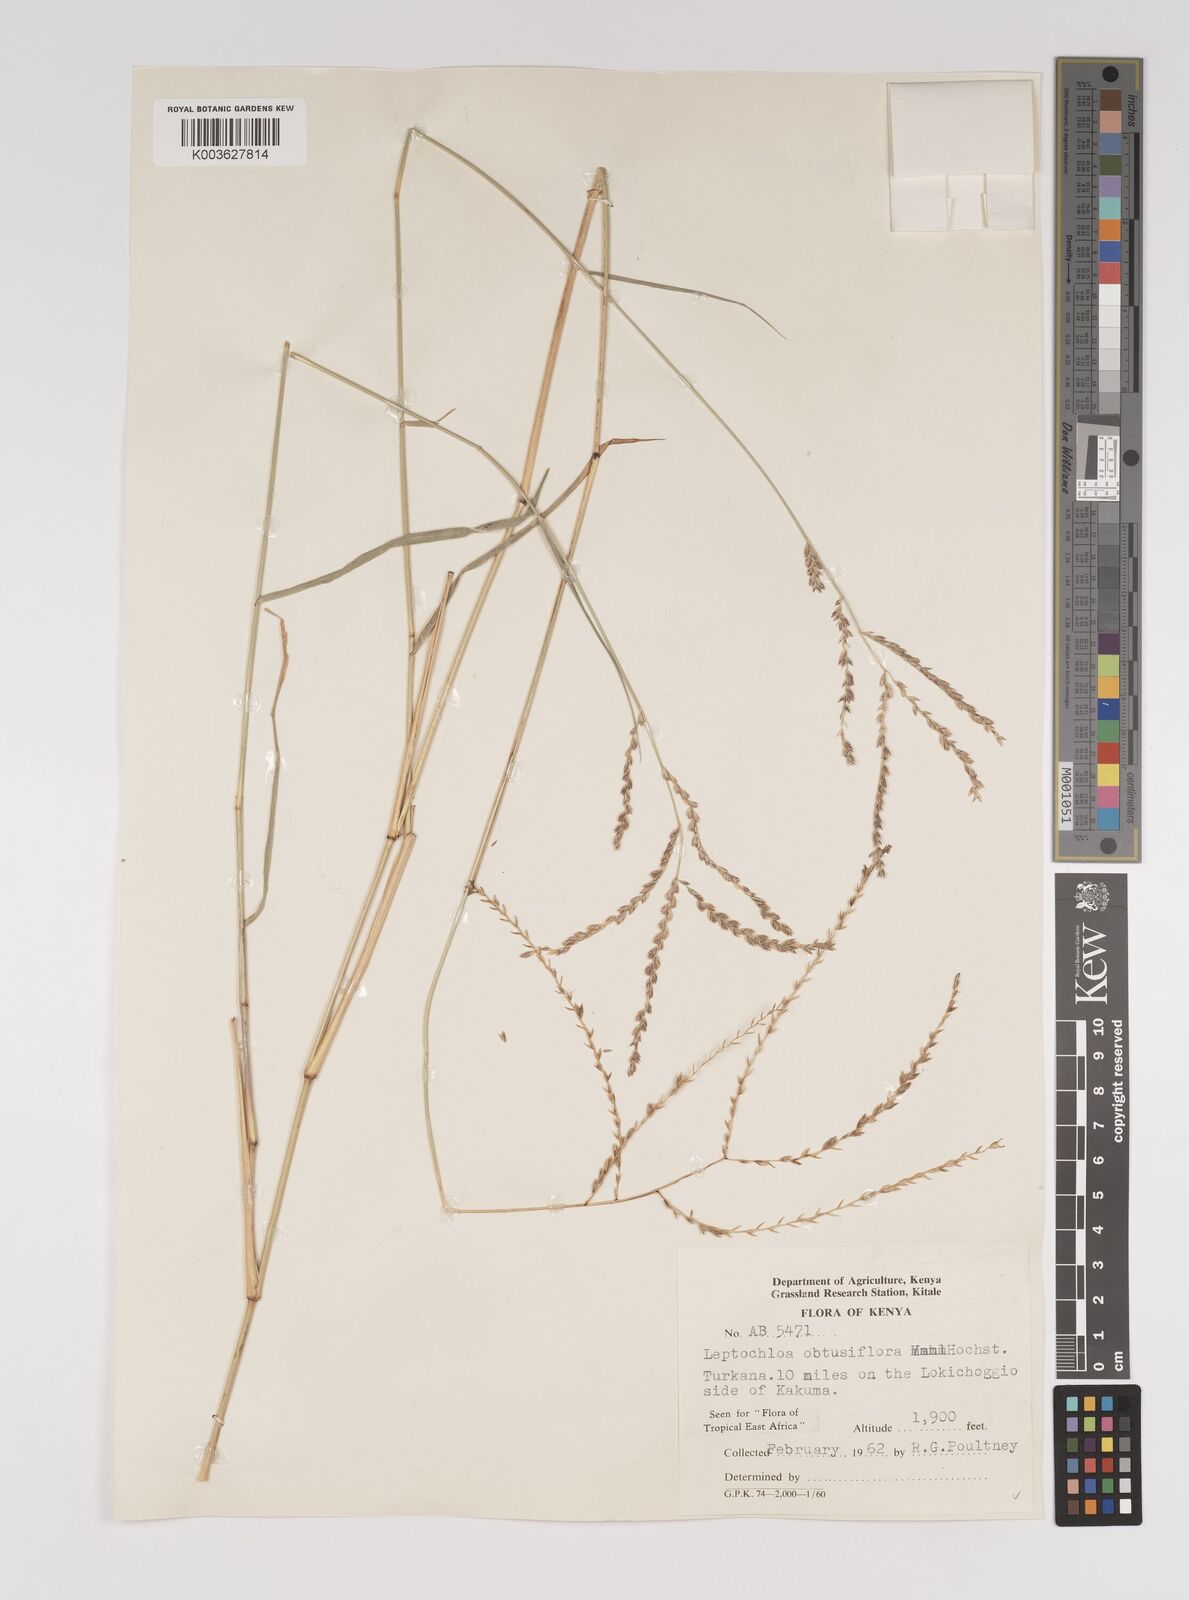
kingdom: Plantae
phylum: Tracheophyta
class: Liliopsida
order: Poales
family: Poaceae
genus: Disakisperma
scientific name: Disakisperma obtusiflorum
